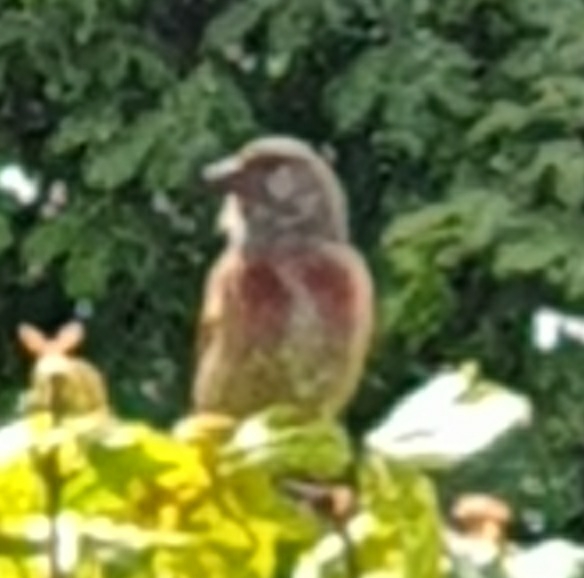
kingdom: Animalia
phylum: Chordata
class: Aves
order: Passeriformes
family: Fringillidae
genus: Linaria
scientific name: Linaria cannabina
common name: Tornirisk
